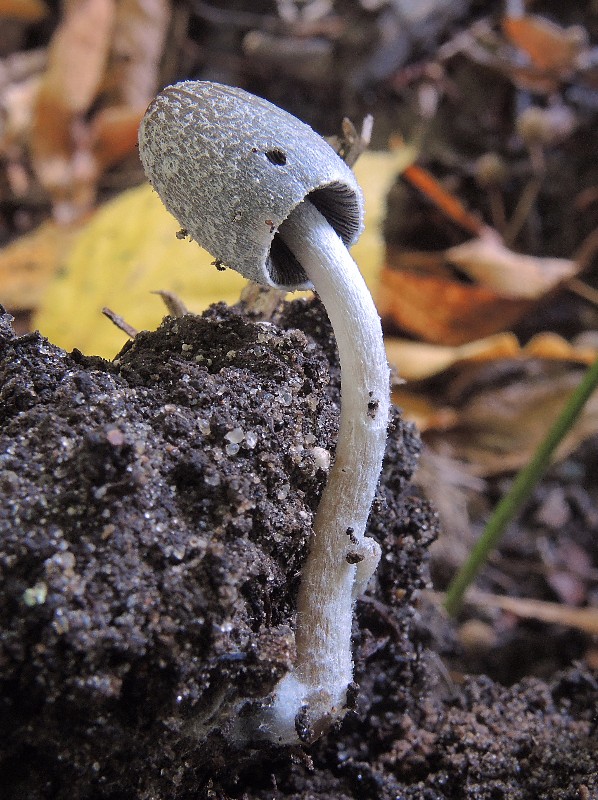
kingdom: Fungi
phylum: Basidiomycota
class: Agaricomycetes
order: Agaricales
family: Psathyrellaceae
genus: Coprinopsis
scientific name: Coprinopsis echinospora
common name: fuglemøg-blækhat
